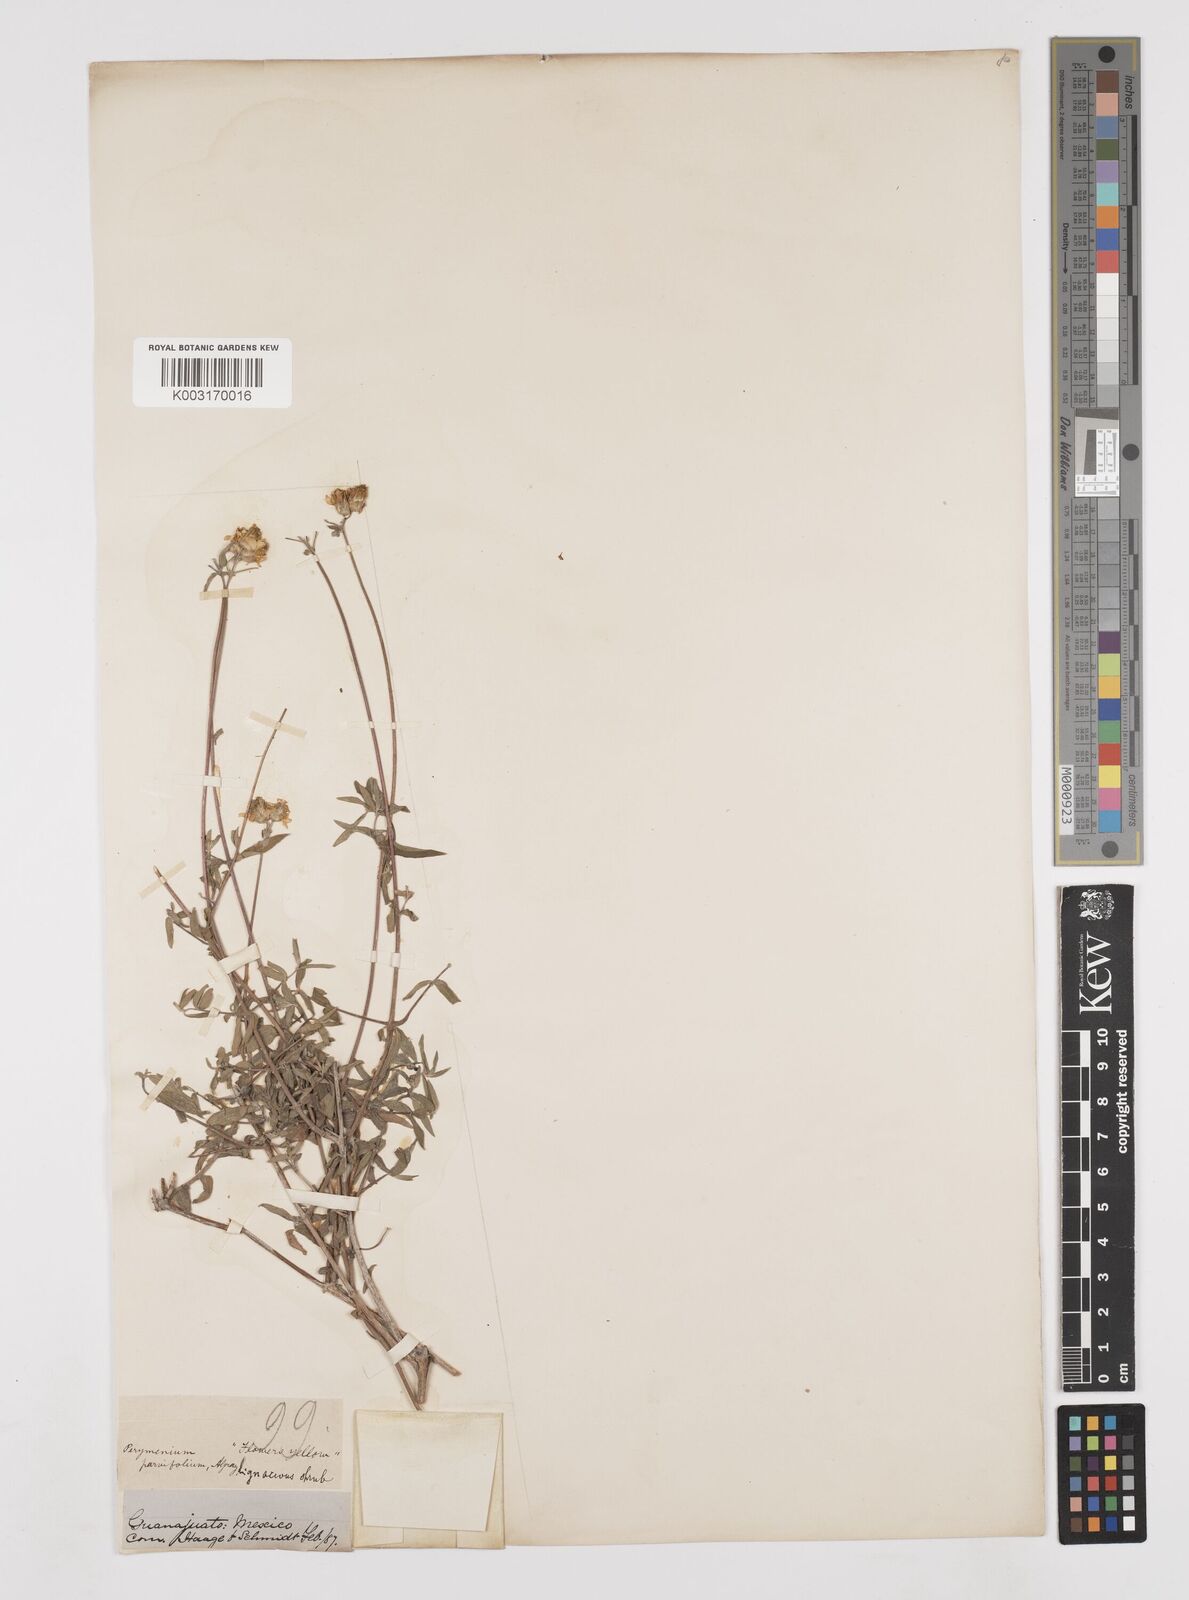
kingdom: Plantae
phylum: Tracheophyta
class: Magnoliopsida
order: Asterales
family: Asteraceae
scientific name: Asteraceae
